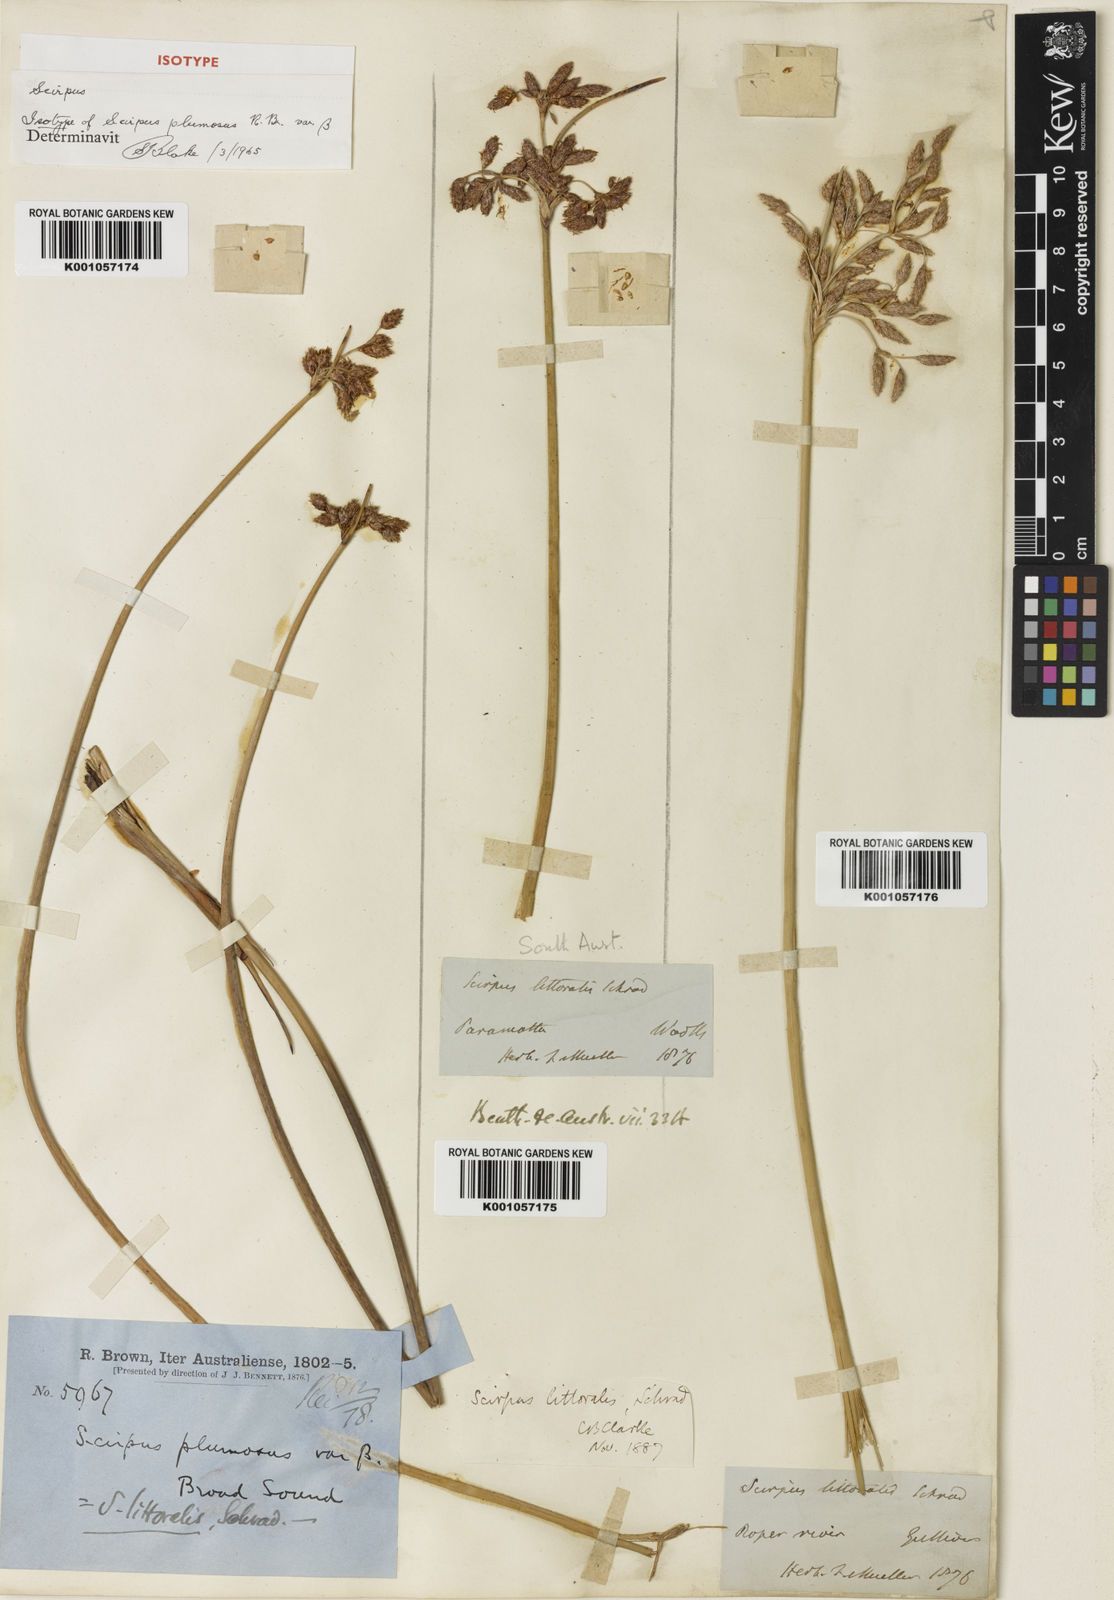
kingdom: Plantae
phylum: Tracheophyta
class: Liliopsida
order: Poales
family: Cyperaceae
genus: Schoenoplectus
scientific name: Schoenoplectus litoralis
